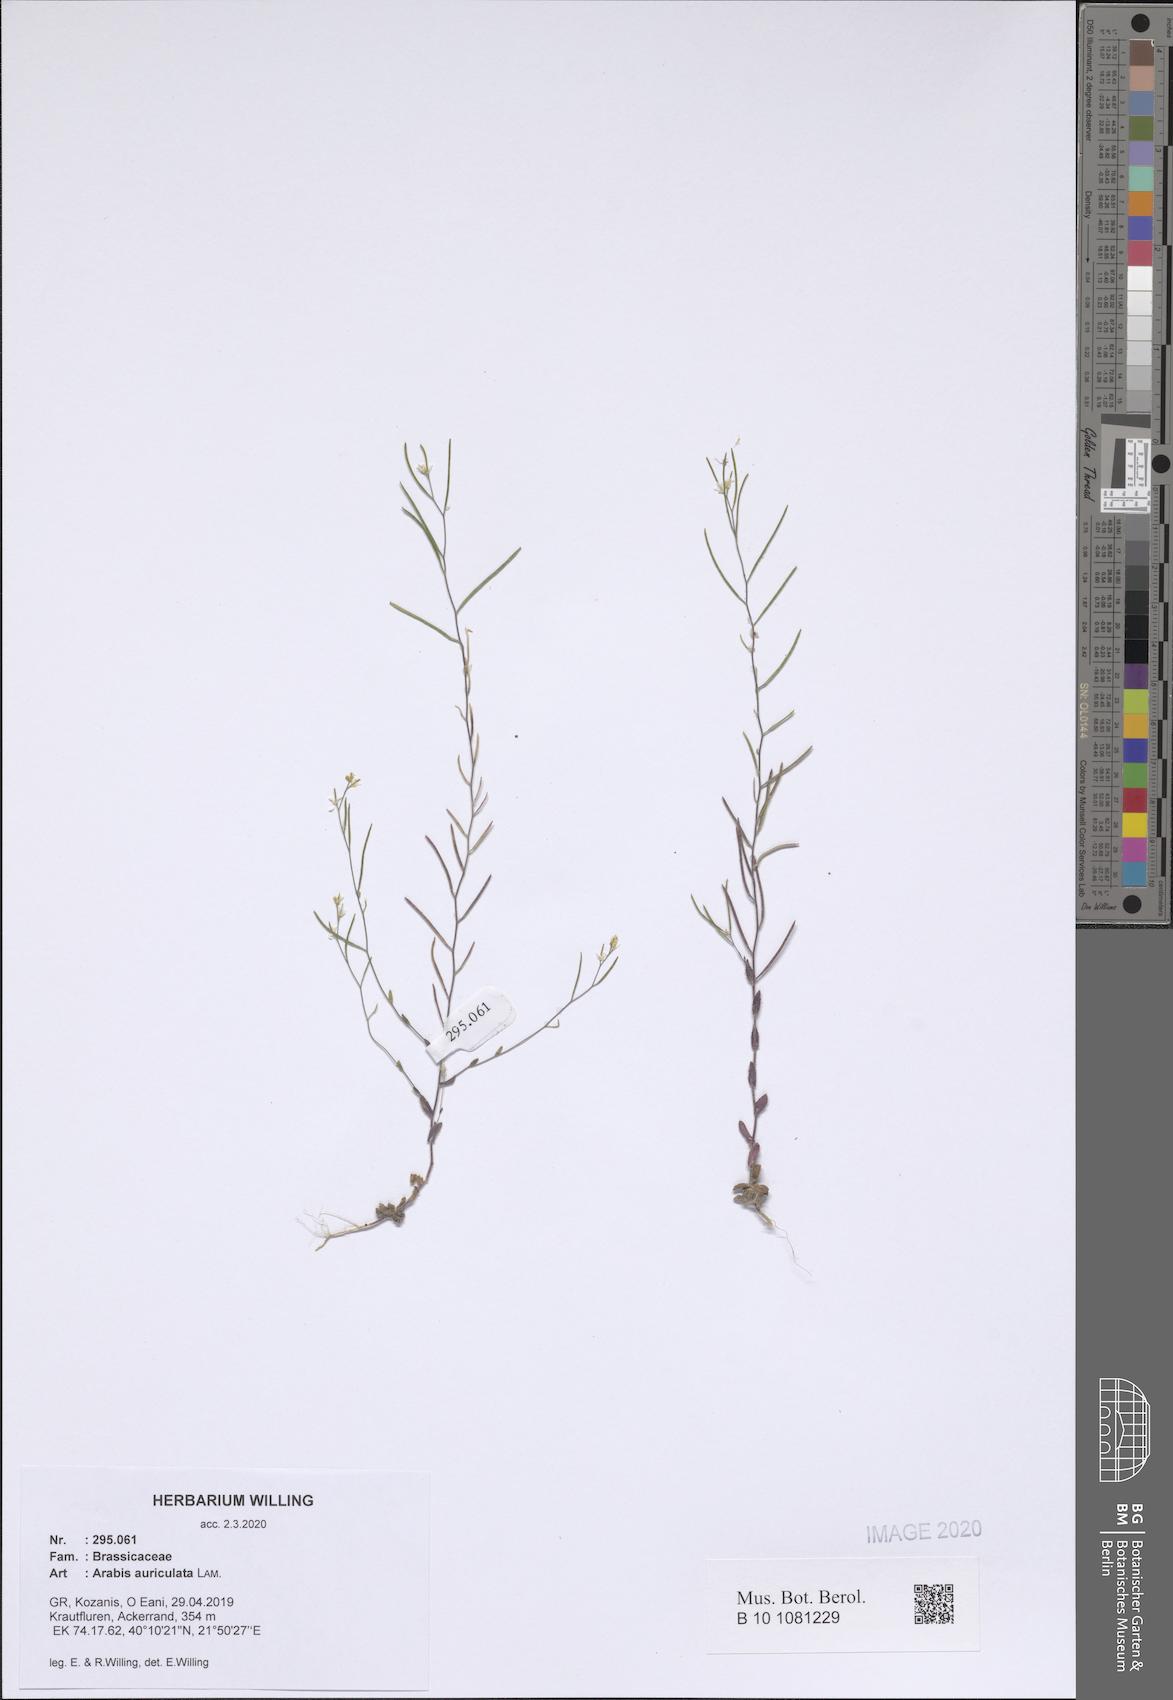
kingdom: Plantae
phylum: Tracheophyta
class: Magnoliopsida
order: Brassicales
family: Brassicaceae
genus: Arabis
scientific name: Arabis auriculata
